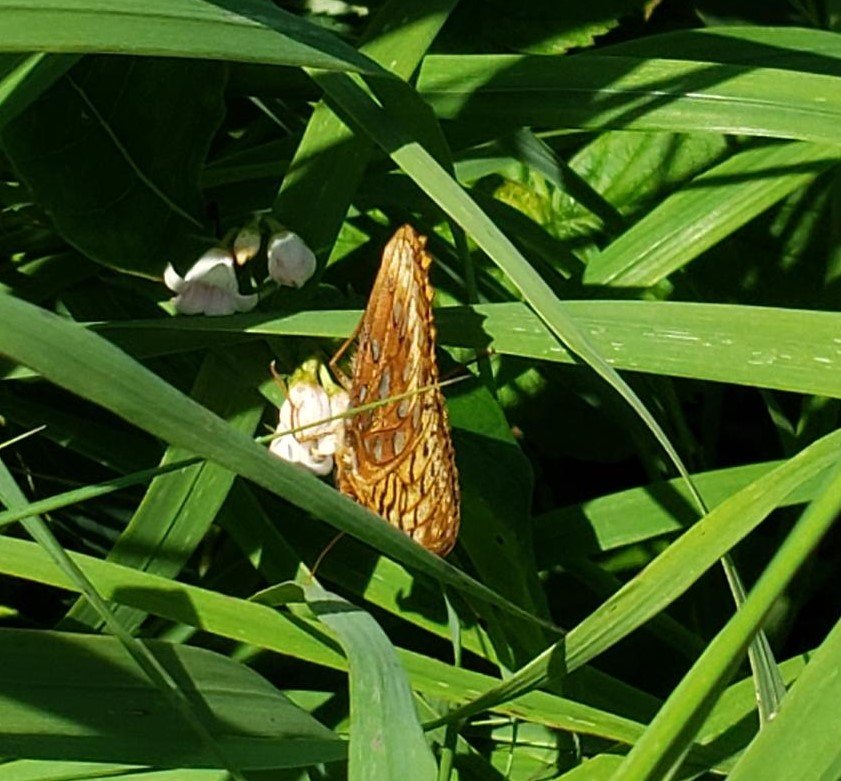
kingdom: Animalia
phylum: Arthropoda
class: Insecta
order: Lepidoptera
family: Nymphalidae
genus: Speyeria
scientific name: Speyeria cybele
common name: Great Spangled Fritillary
